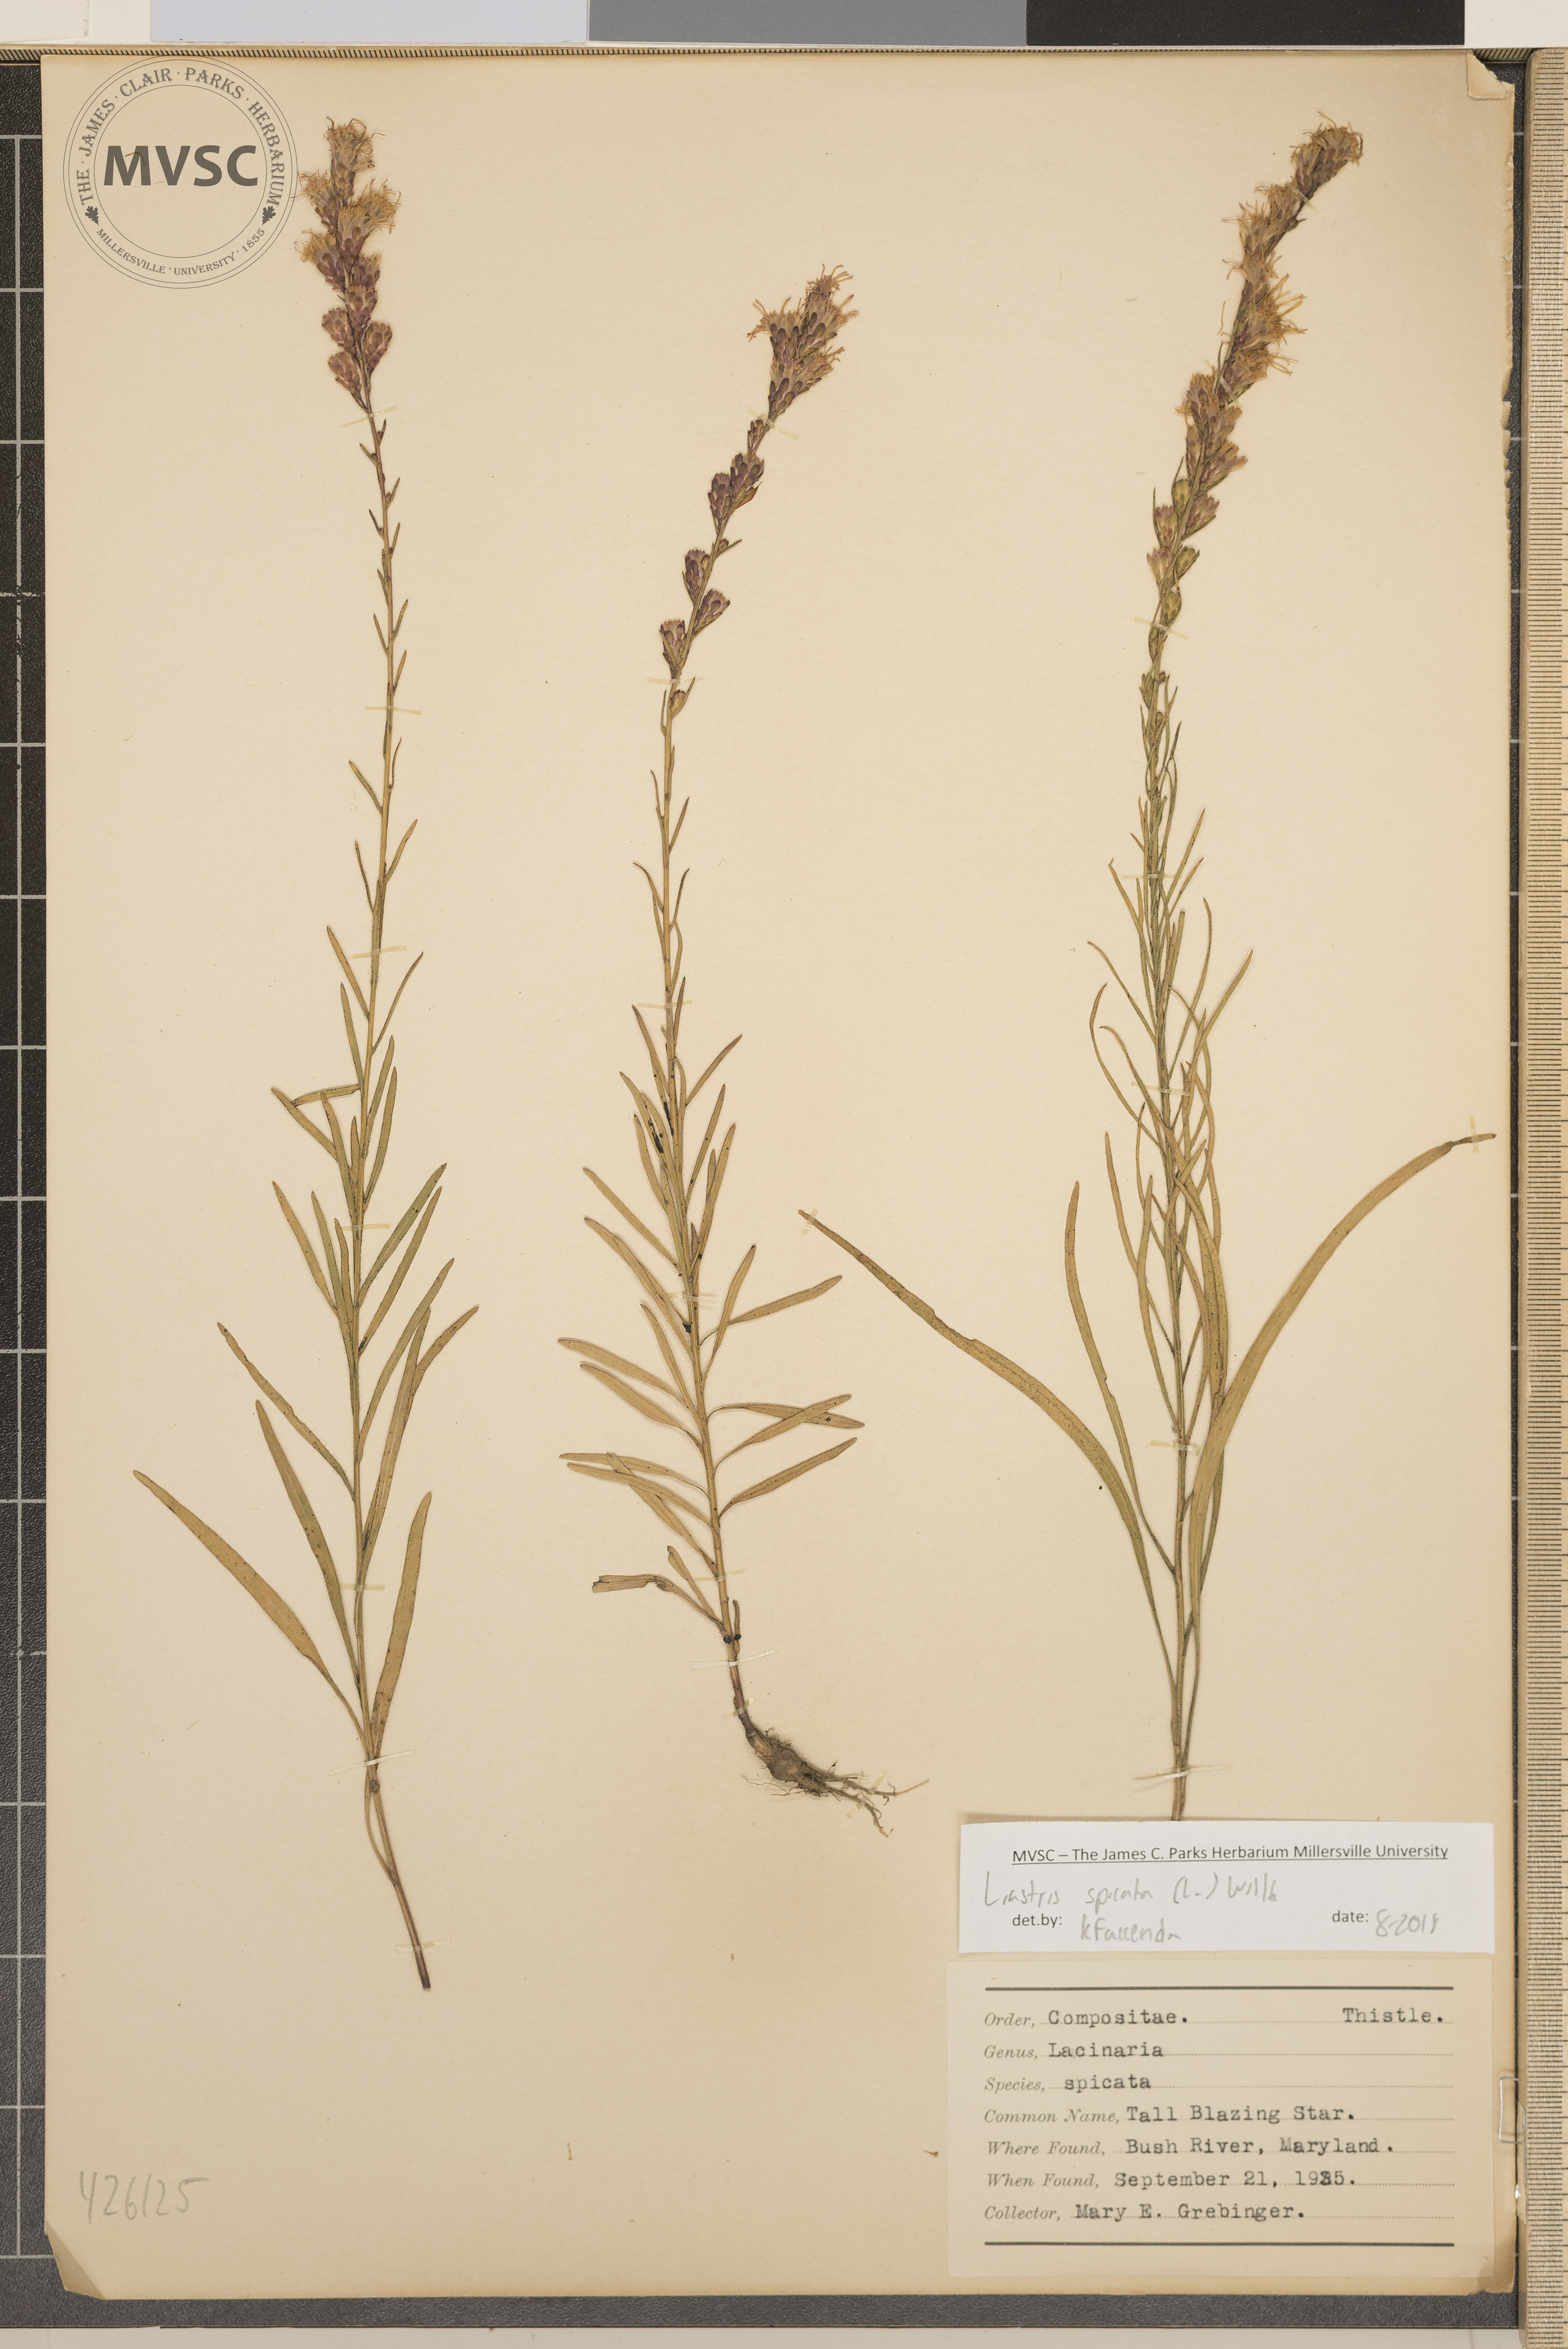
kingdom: Plantae
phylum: Tracheophyta
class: Magnoliopsida
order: Asterales
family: Asteraceae
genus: Liatris
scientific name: Liatris spicata
